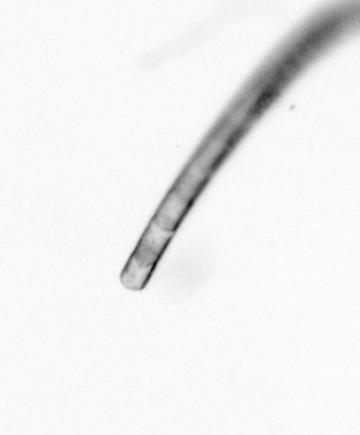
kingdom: Chromista
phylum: Ochrophyta
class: Bacillariophyceae
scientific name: Bacillariophyceae
